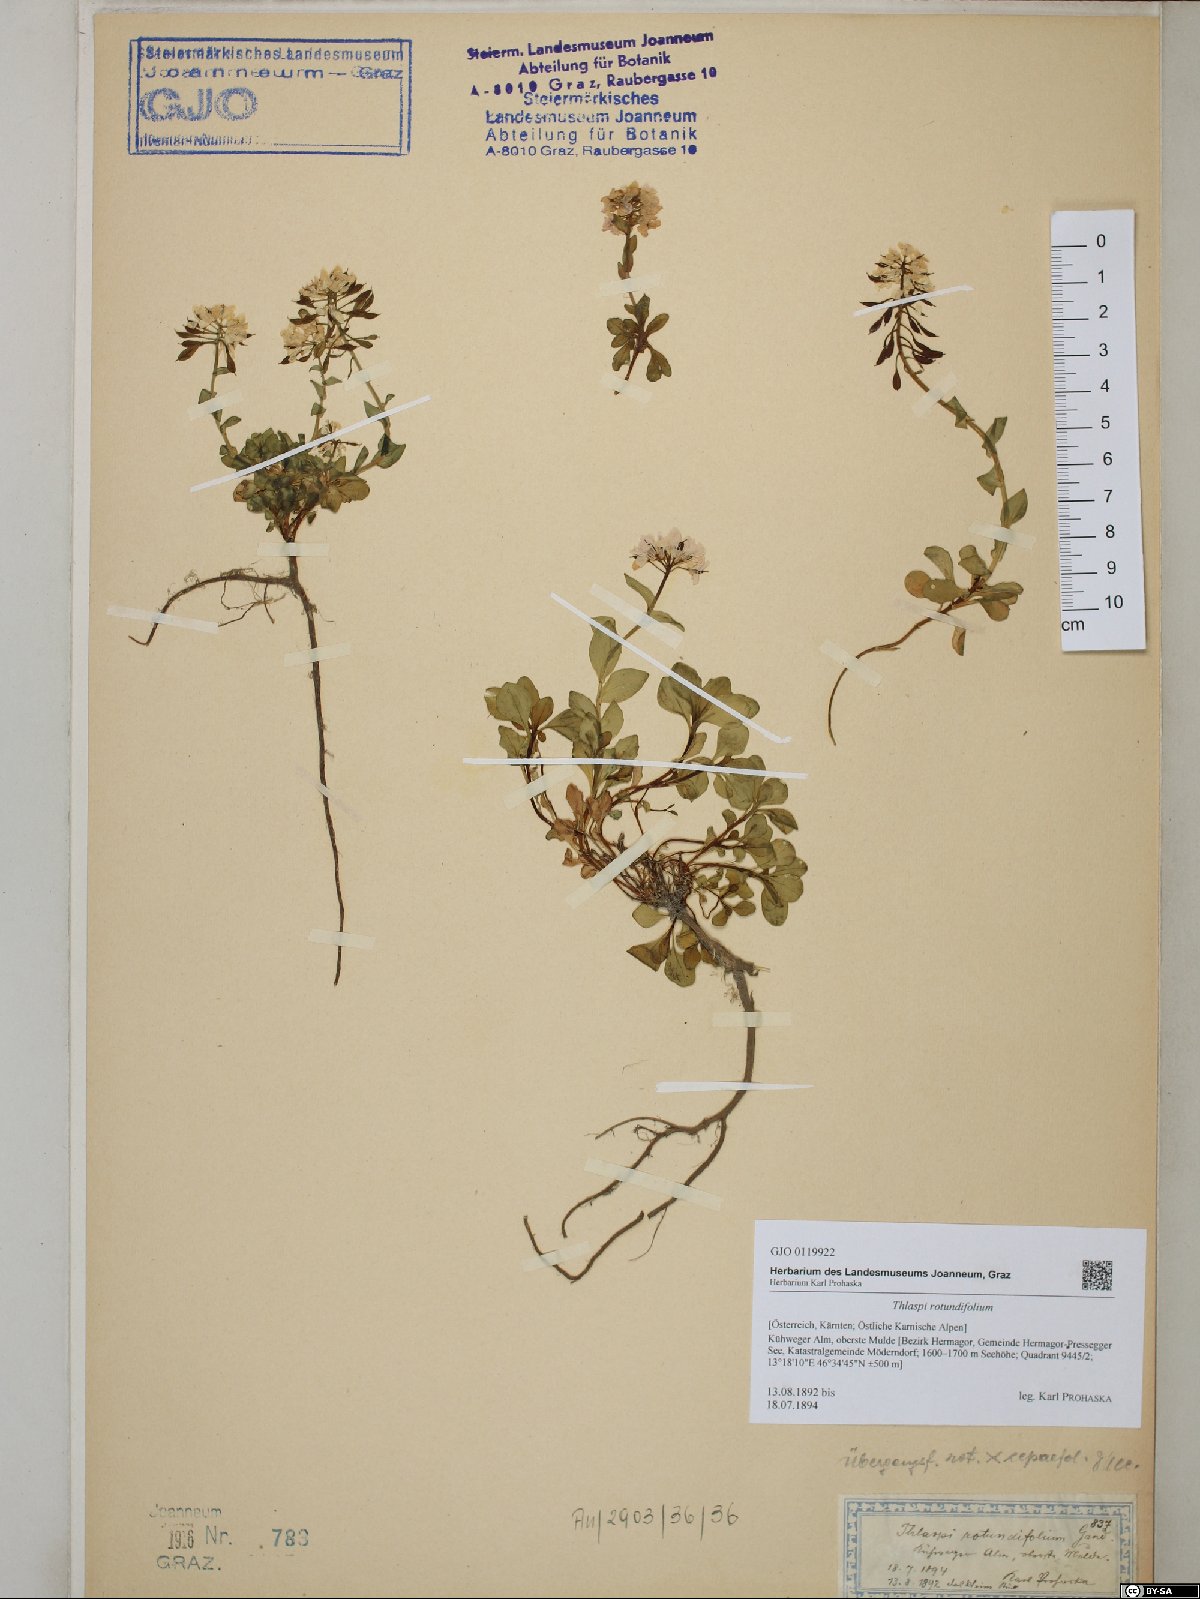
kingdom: Plantae
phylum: Tracheophyta
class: Magnoliopsida
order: Brassicales
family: Brassicaceae
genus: Noccaea
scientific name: Noccaea rotundifolia
